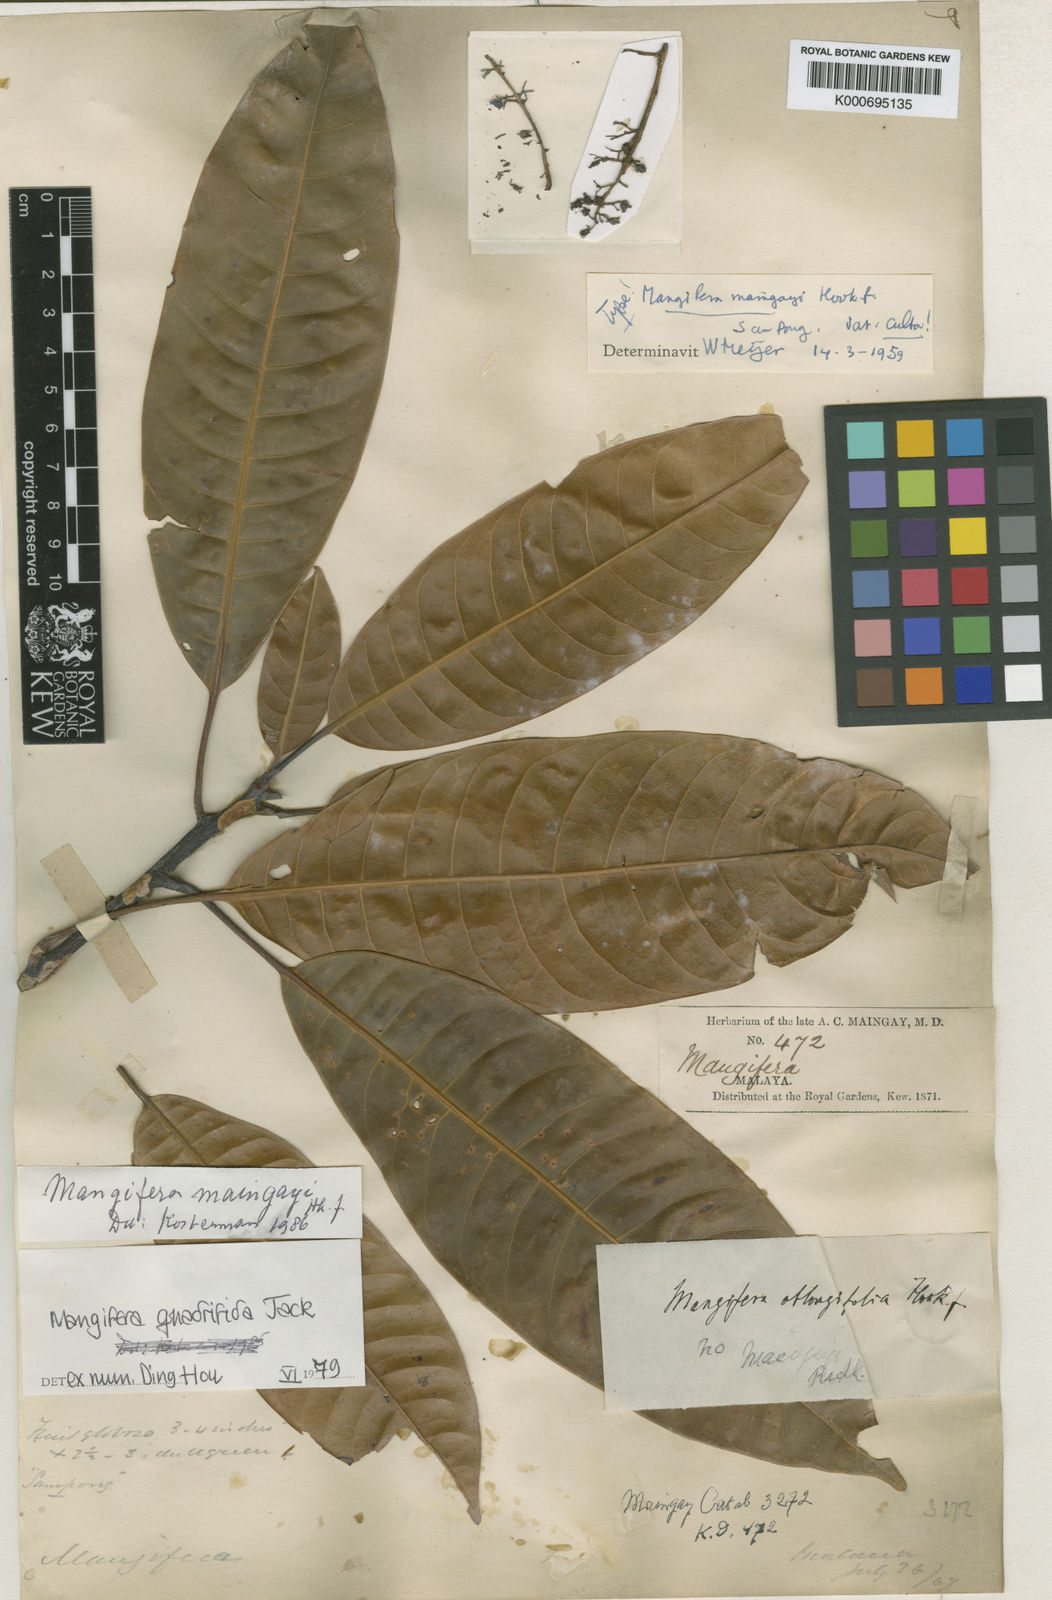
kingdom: Plantae
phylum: Tracheophyta
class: Magnoliopsida
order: Sapindales
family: Anacardiaceae
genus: Mangifera
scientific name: Mangifera quadrifida
